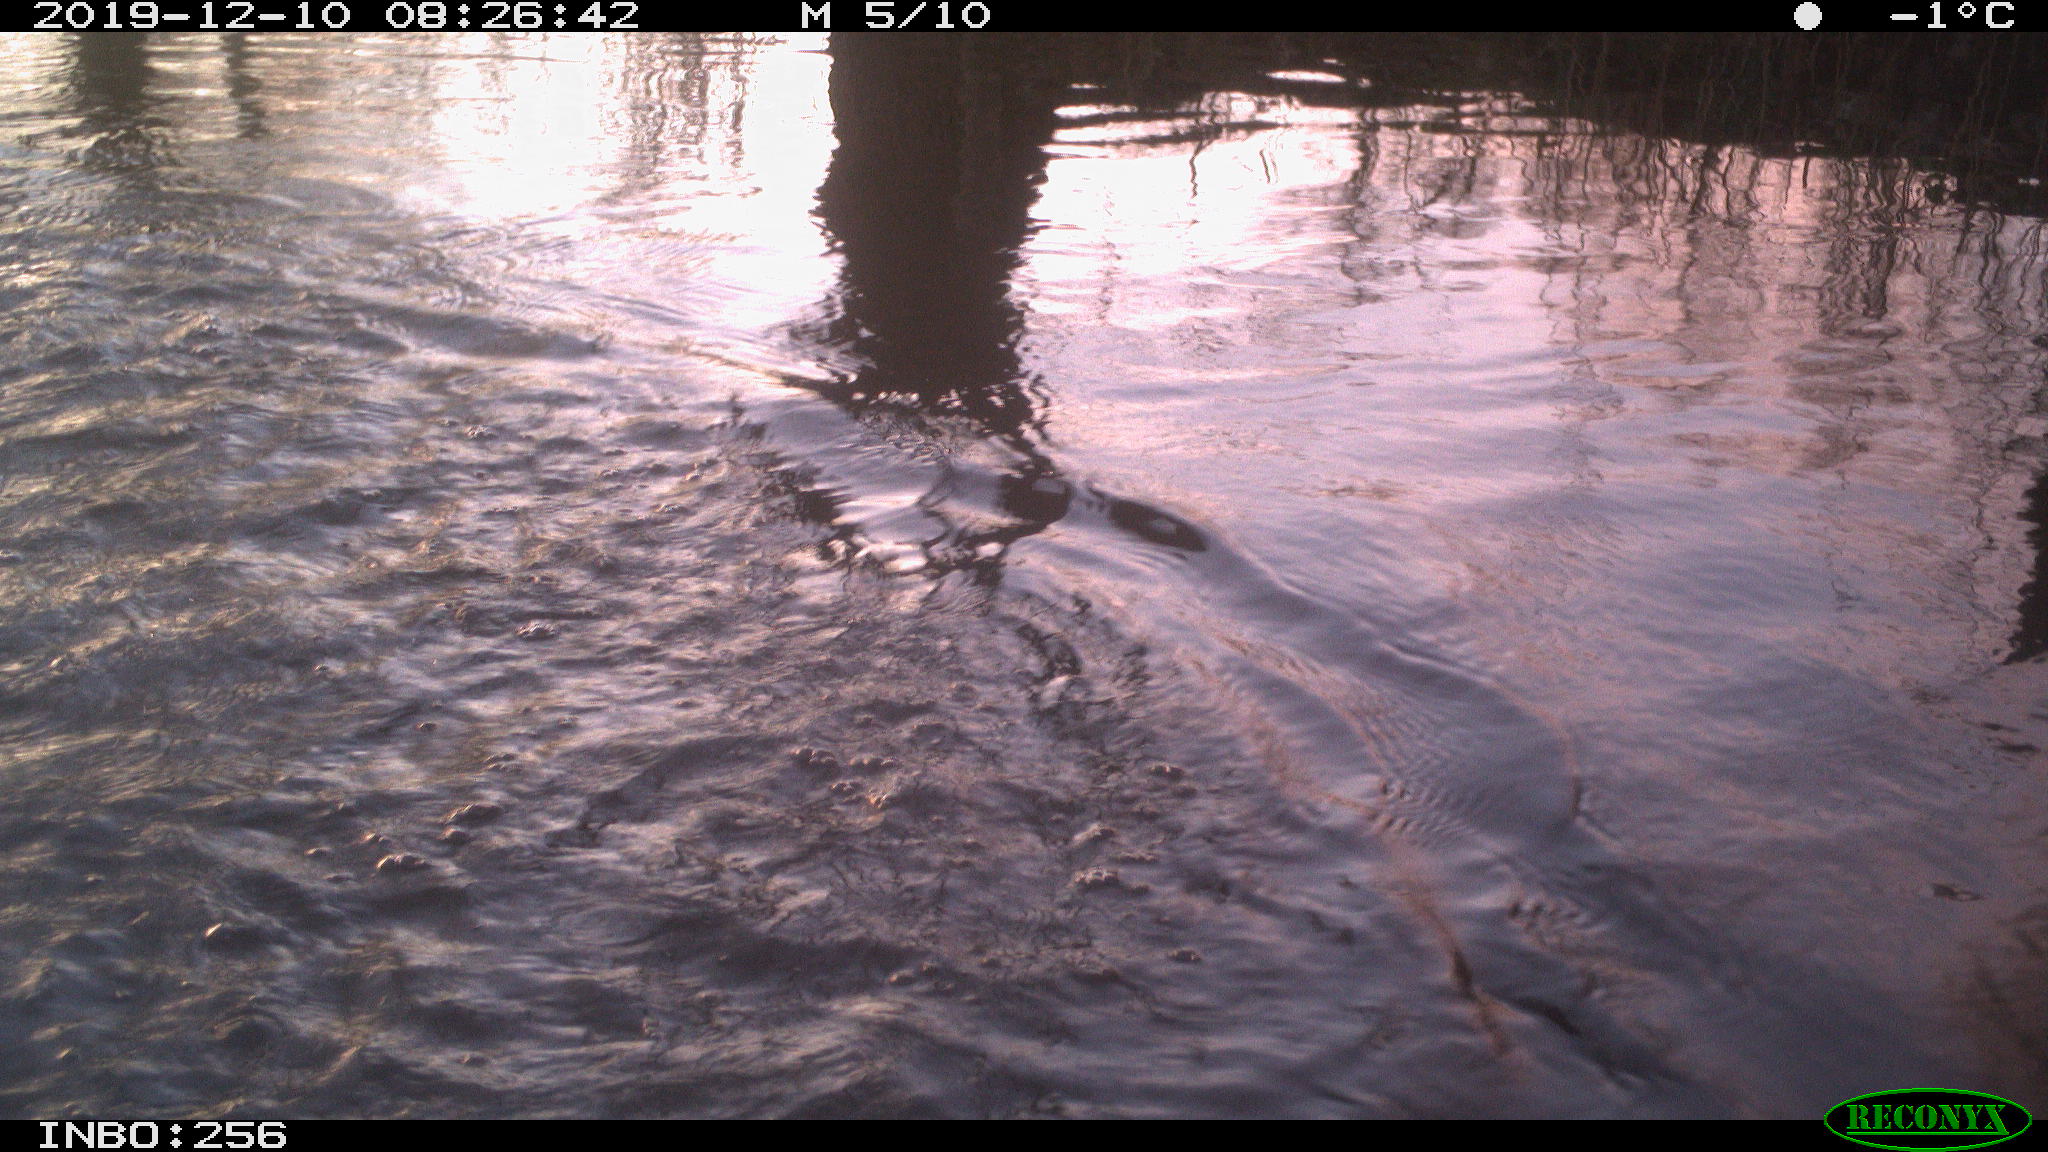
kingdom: Animalia
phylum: Chordata
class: Aves
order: Gruiformes
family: Rallidae
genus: Gallinula
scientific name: Gallinula chloropus
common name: Common moorhen
